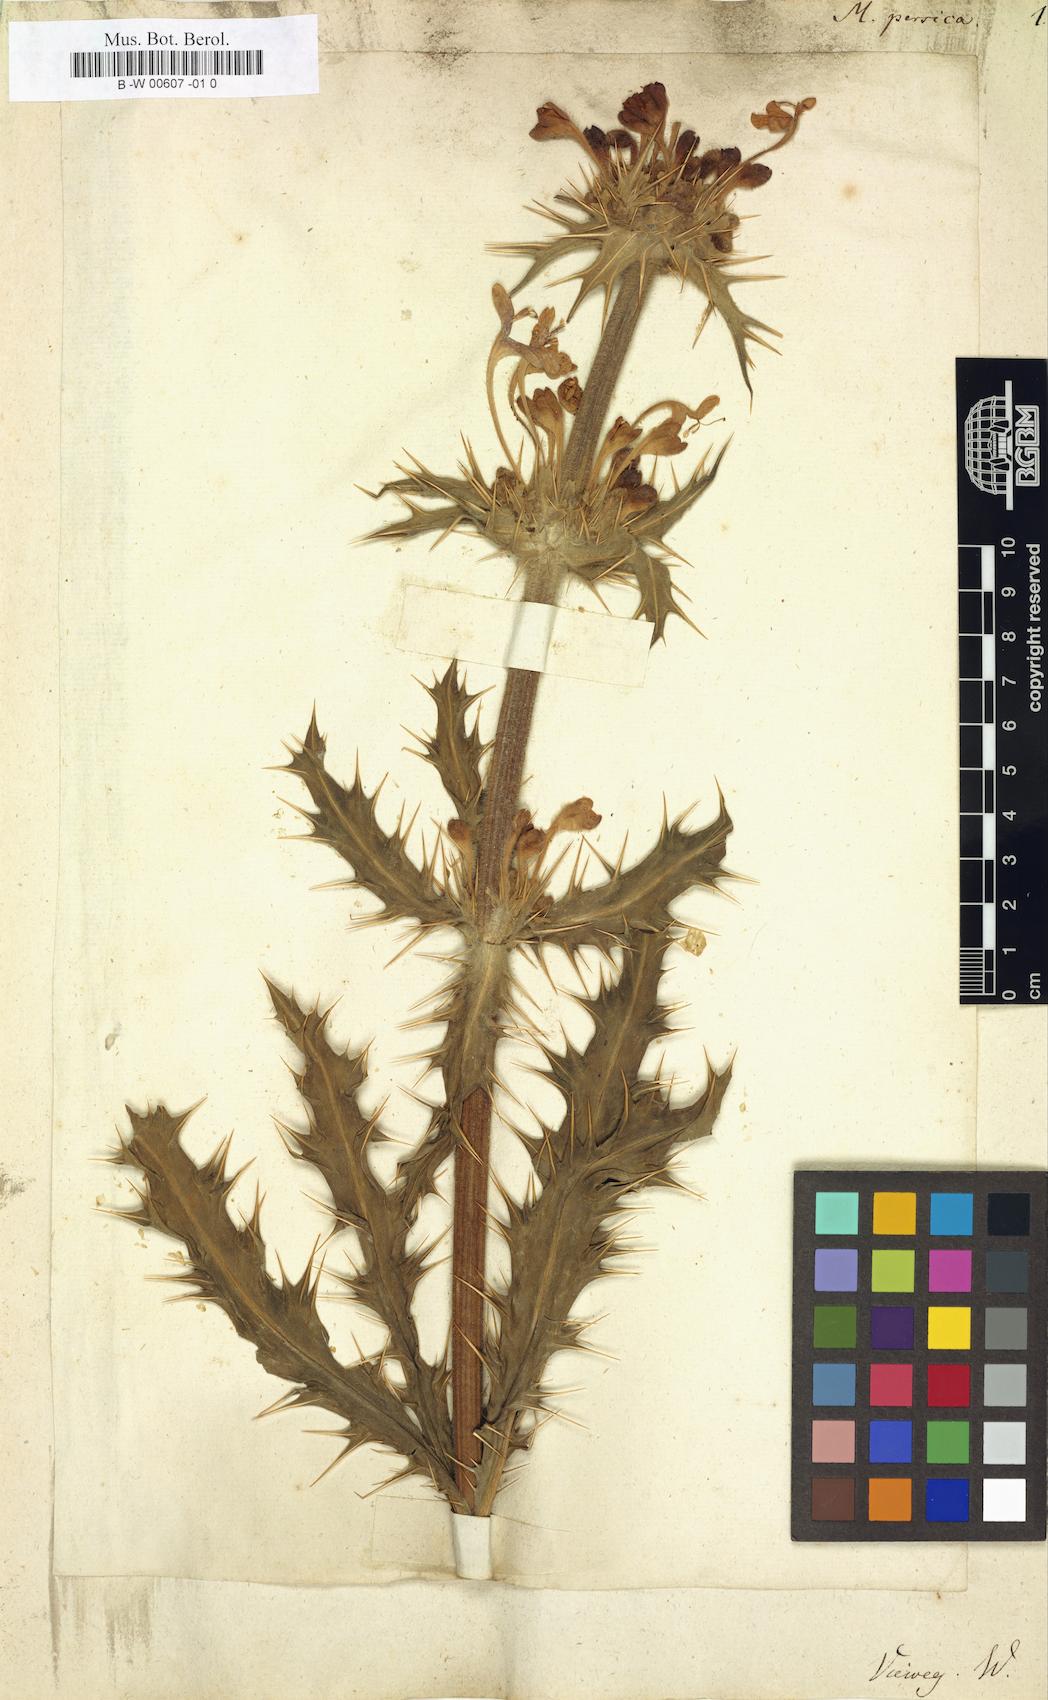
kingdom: Plantae
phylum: Tracheophyta
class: Magnoliopsida
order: Dipsacales
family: Caprifoliaceae
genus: Morina
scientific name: Morina persica
